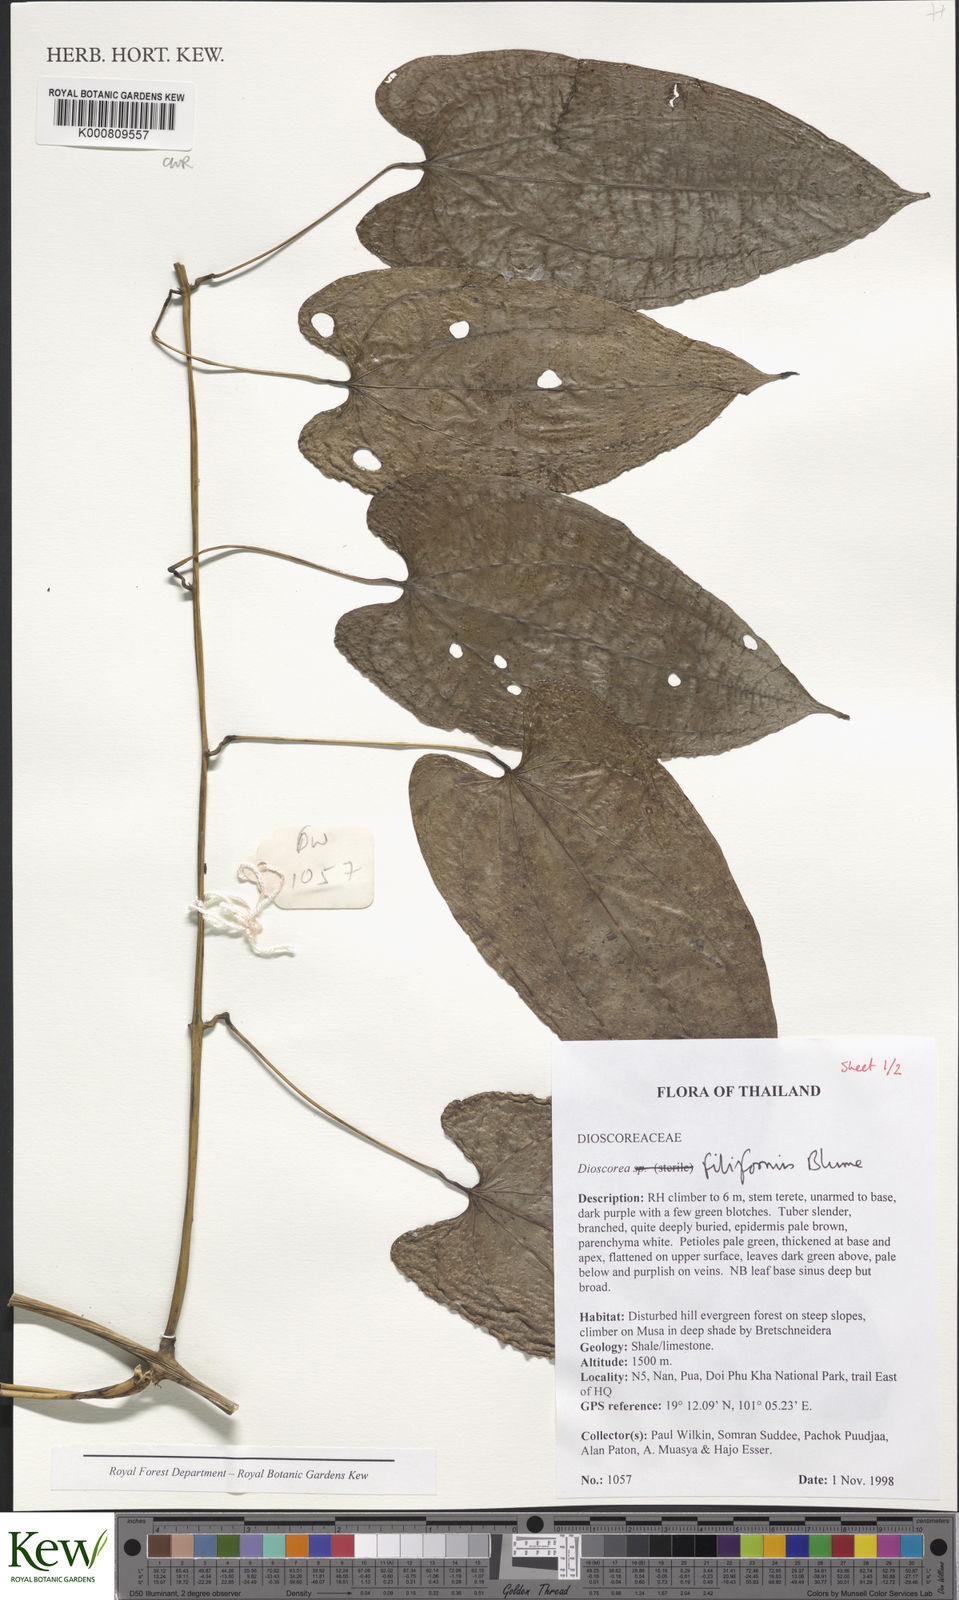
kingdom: Plantae
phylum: Tracheophyta
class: Liliopsida
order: Dioscoreales
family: Dioscoreaceae
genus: Dioscorea
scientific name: Dioscorea filiformis
